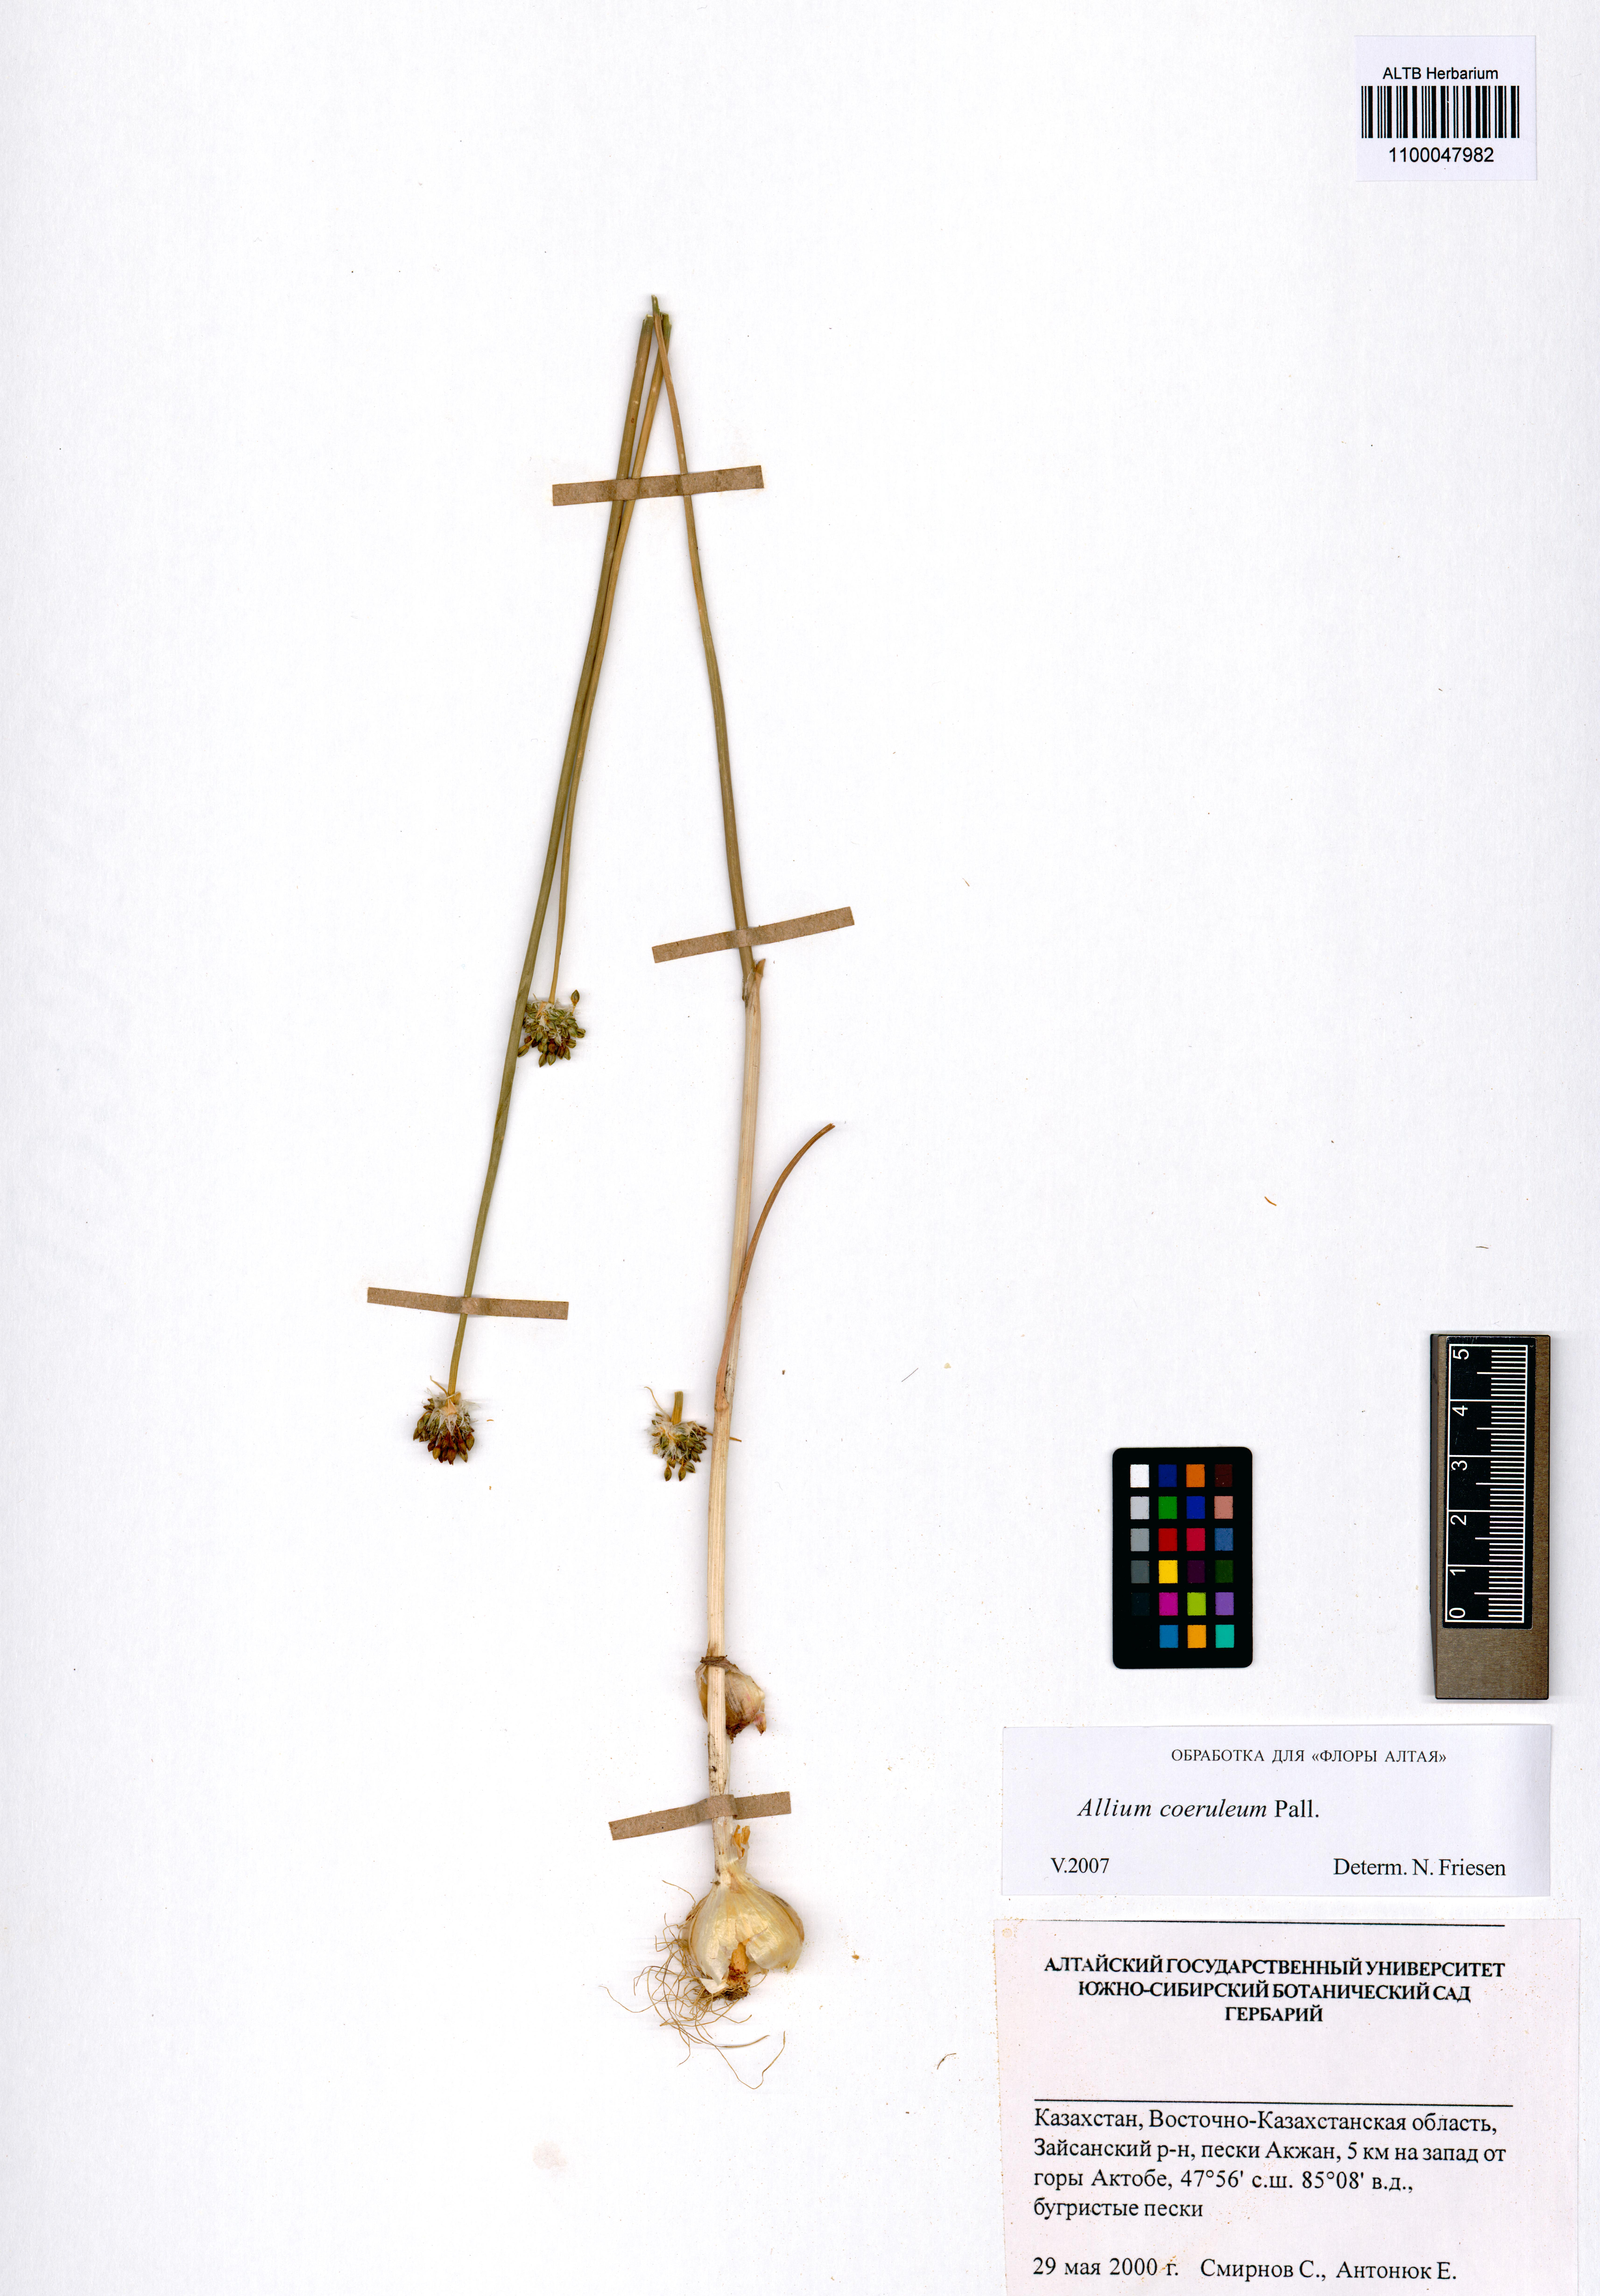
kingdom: Plantae
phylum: Tracheophyta
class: Liliopsida
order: Asparagales
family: Amaryllidaceae
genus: Allium
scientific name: Allium caeruleum
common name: Blue-of-the-heavens
